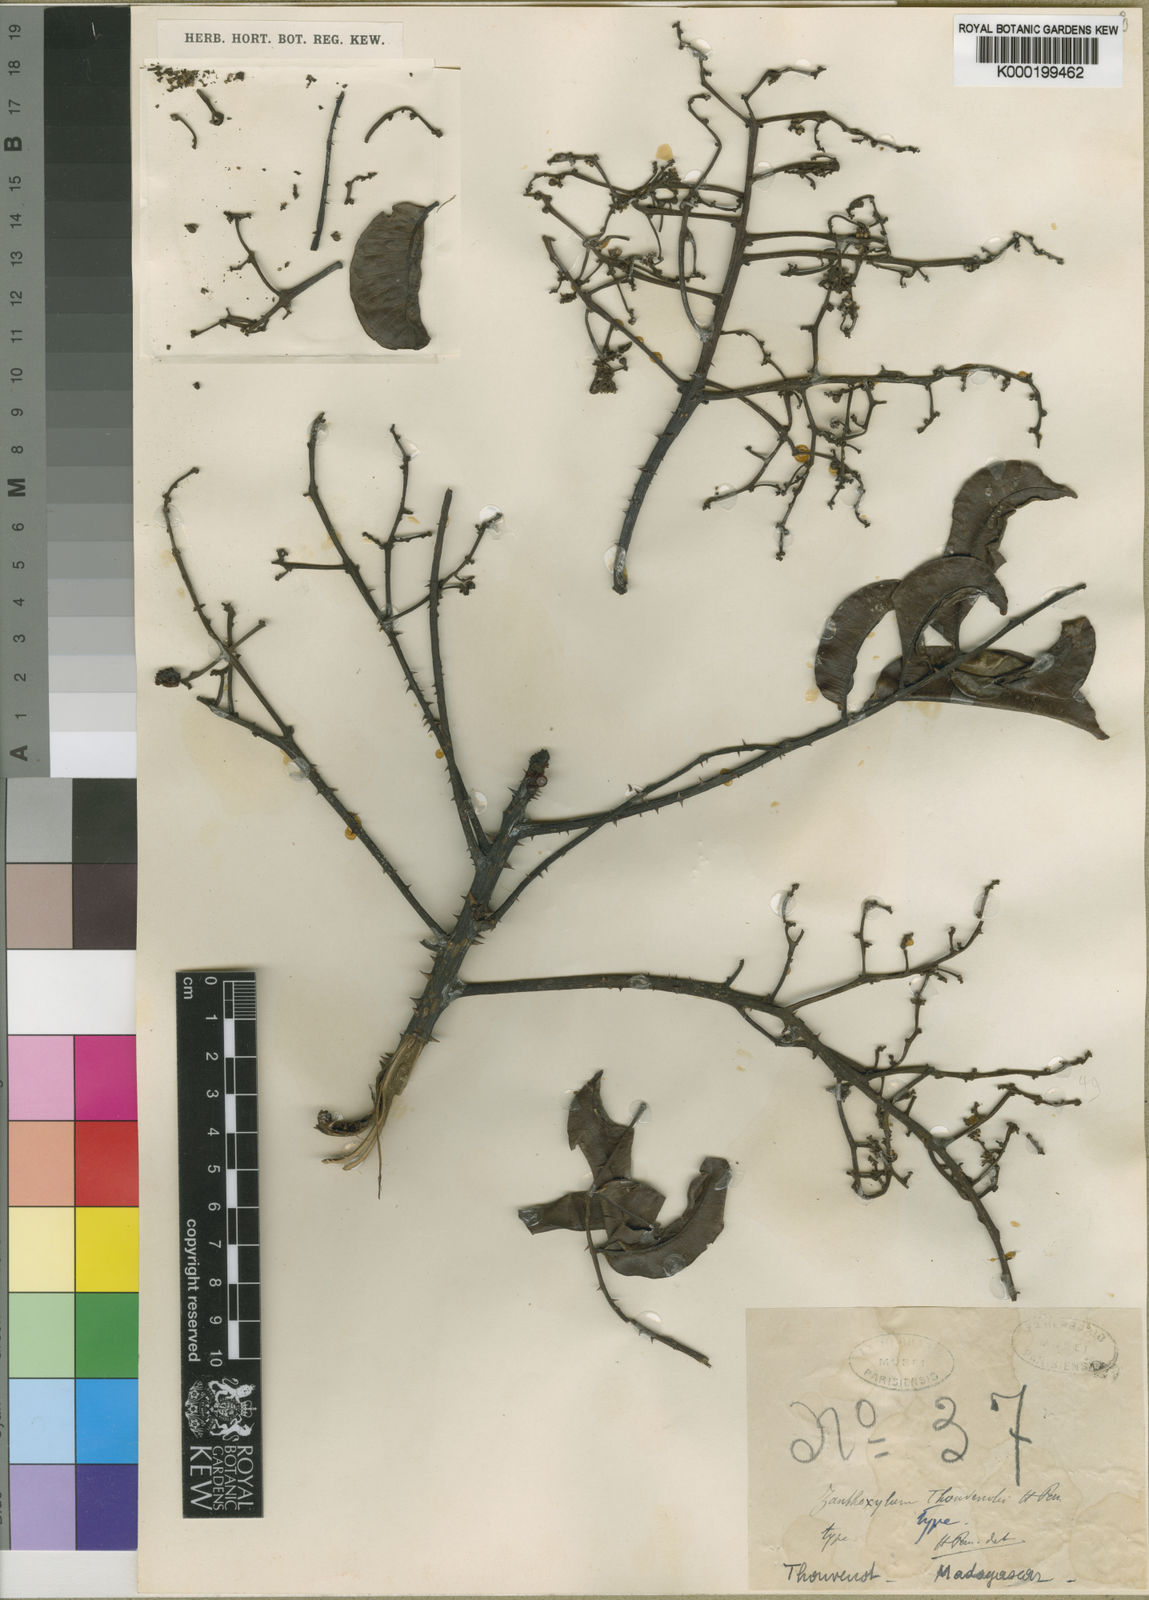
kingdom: Plantae
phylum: Tracheophyta
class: Magnoliopsida
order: Sapindales
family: Rutaceae
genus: Zanthoxylum
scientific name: Zanthoxylum thouvenotii
